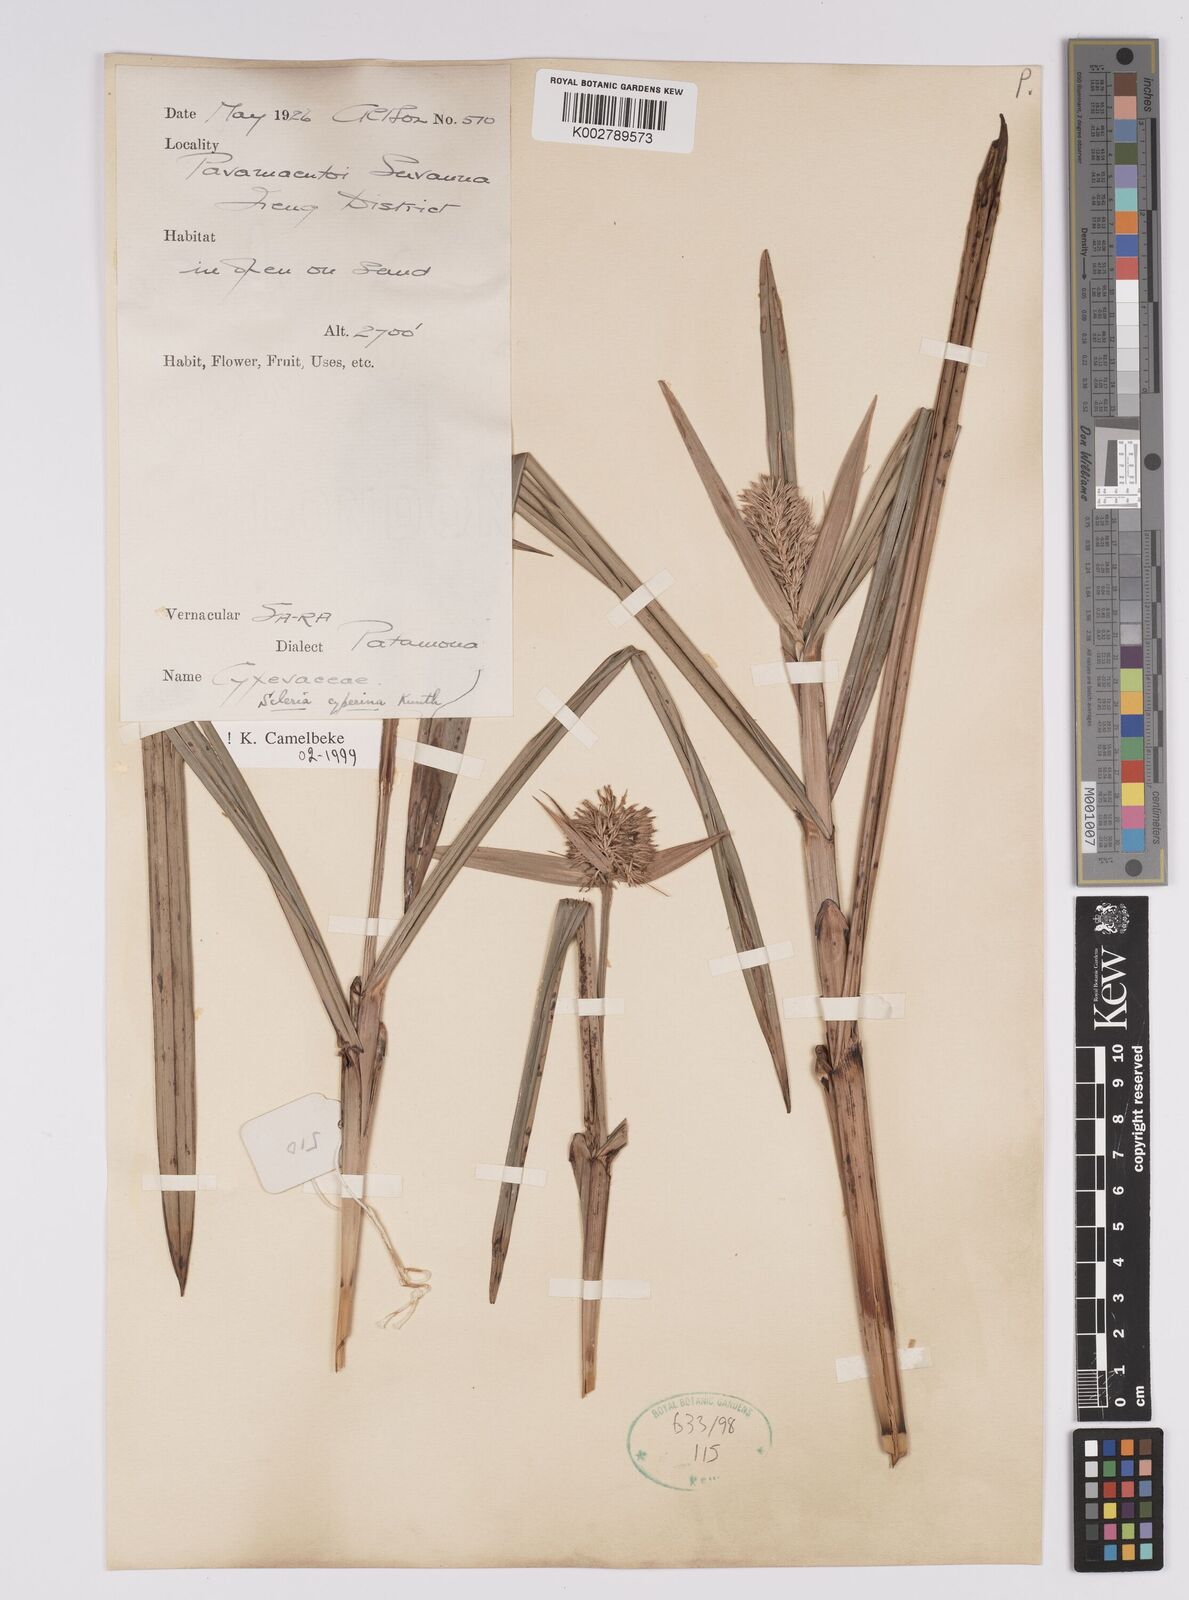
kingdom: Plantae
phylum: Tracheophyta
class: Liliopsida
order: Poales
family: Cyperaceae
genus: Scleria
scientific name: Scleria cyperina
